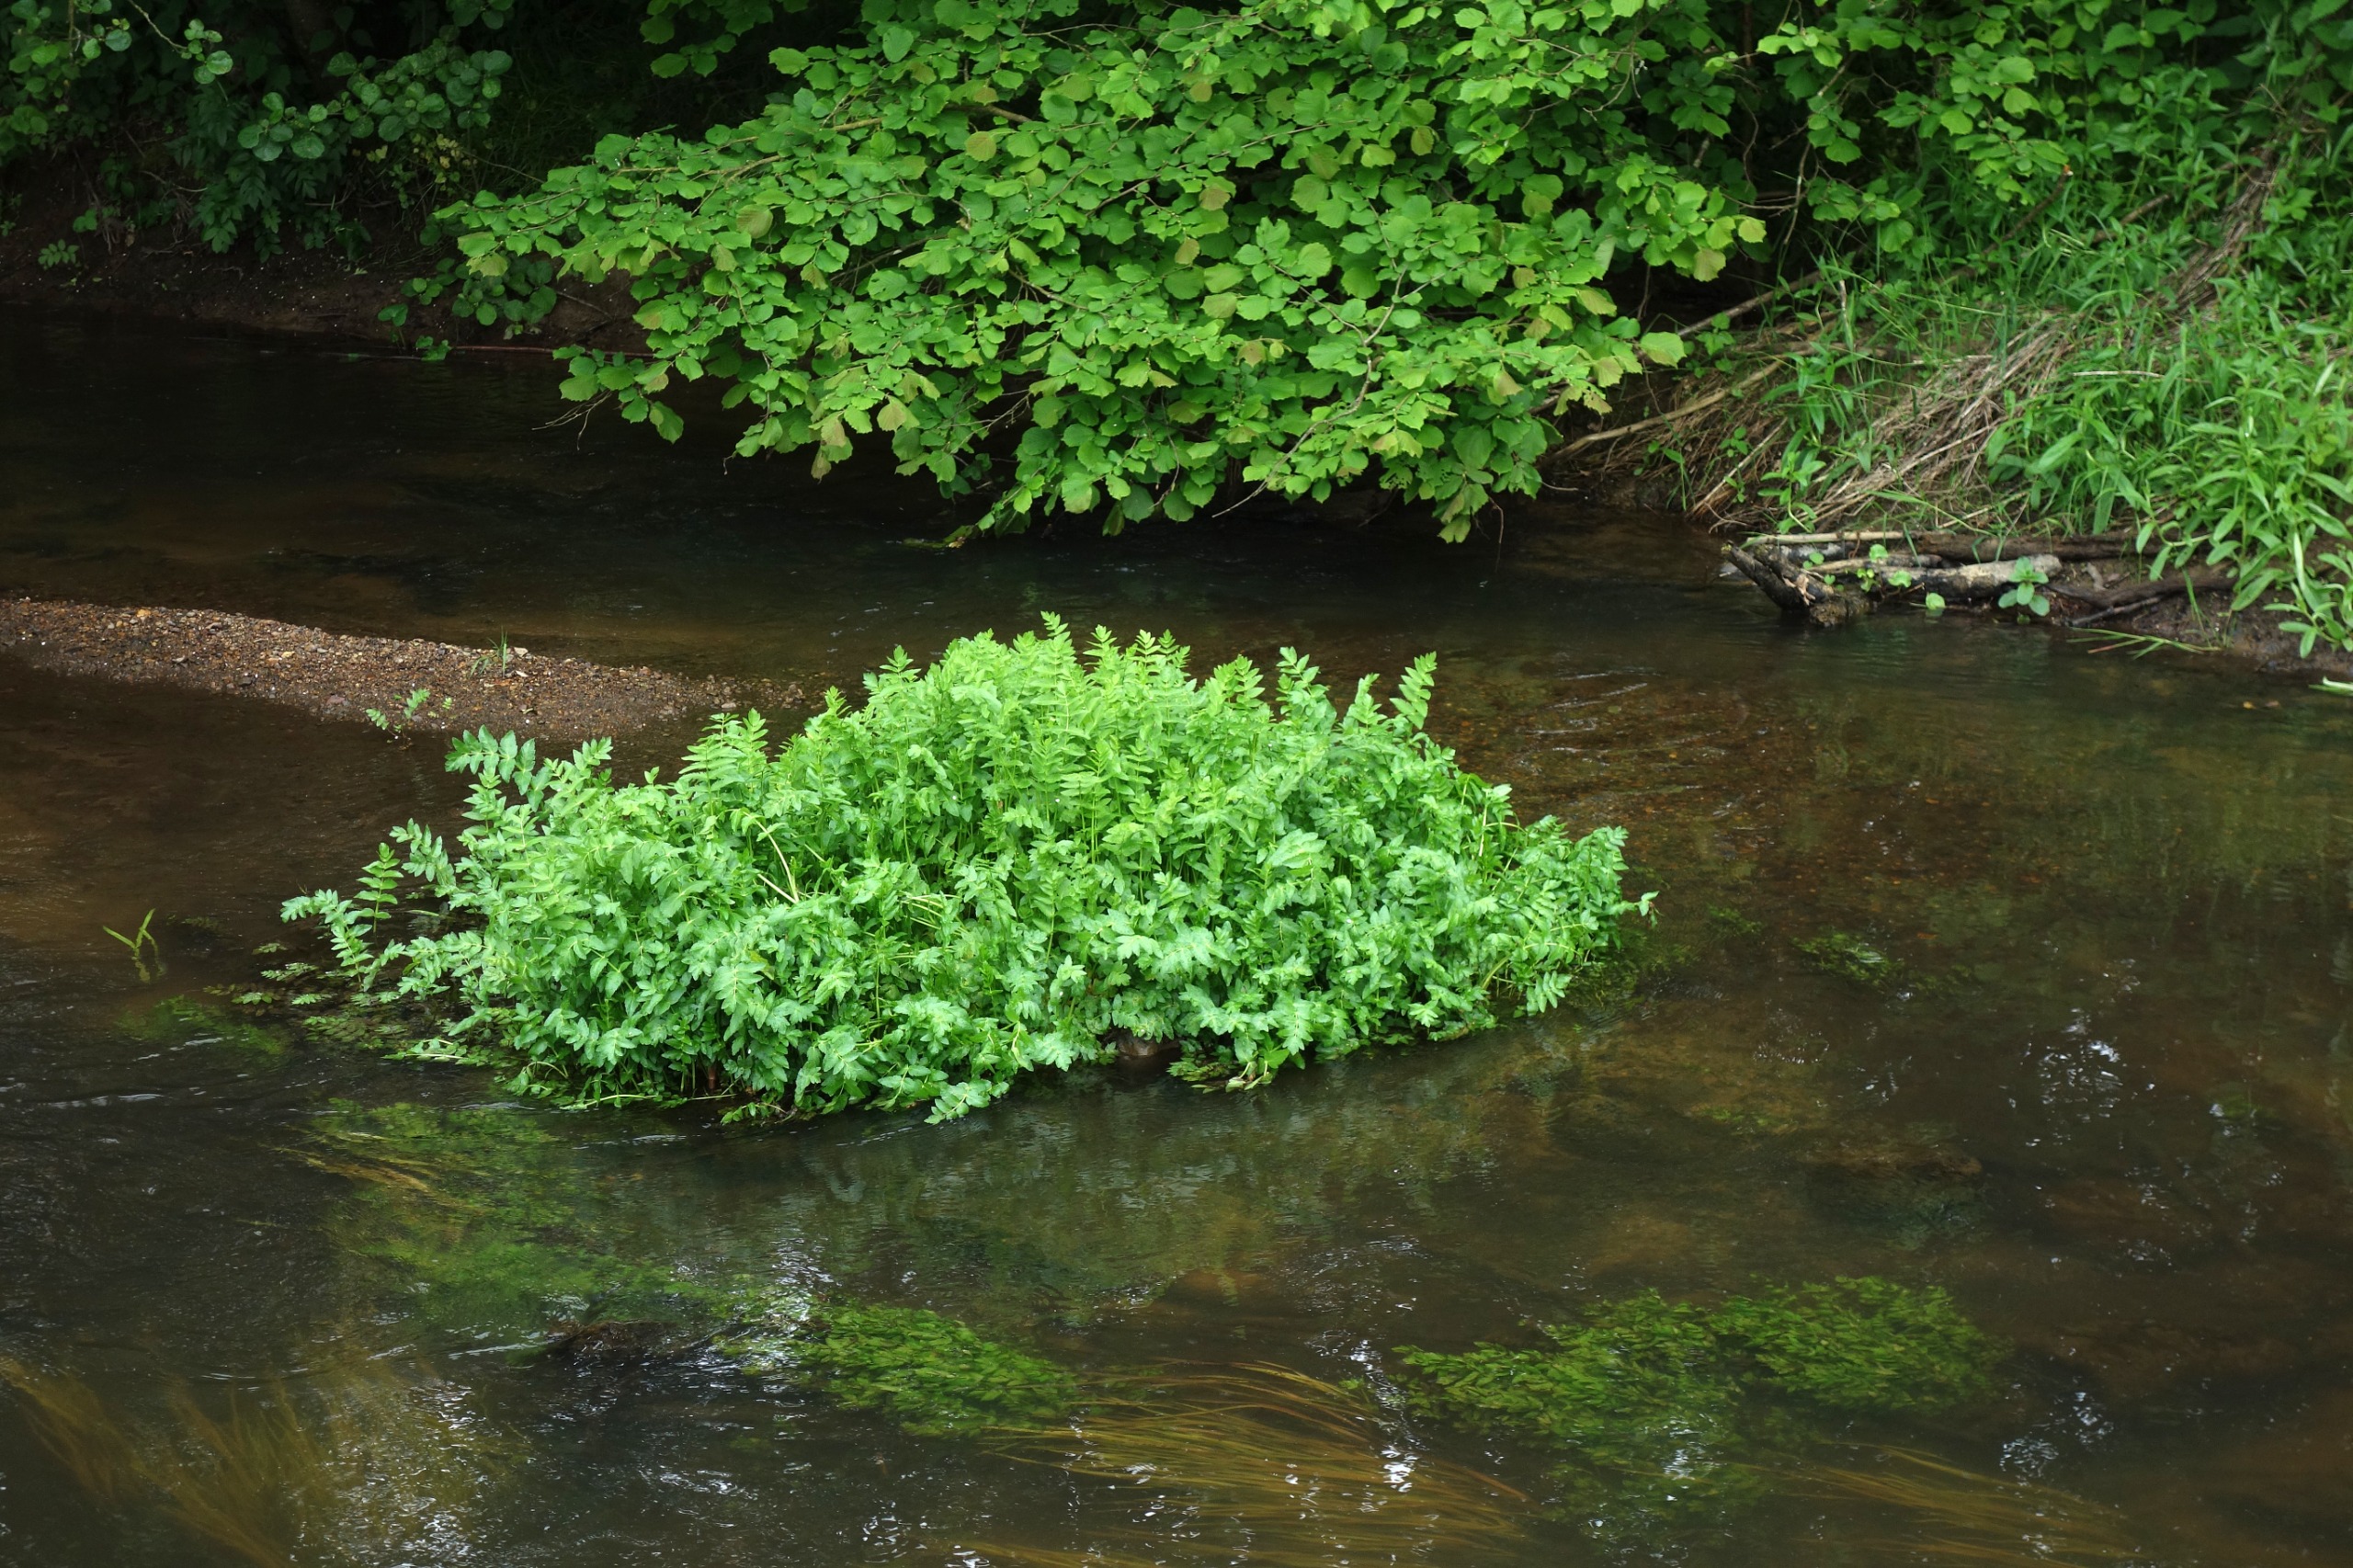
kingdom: Plantae
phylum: Tracheophyta
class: Magnoliopsida
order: Apiales
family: Apiaceae
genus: Berula
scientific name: Berula erecta
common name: Sideskærm
